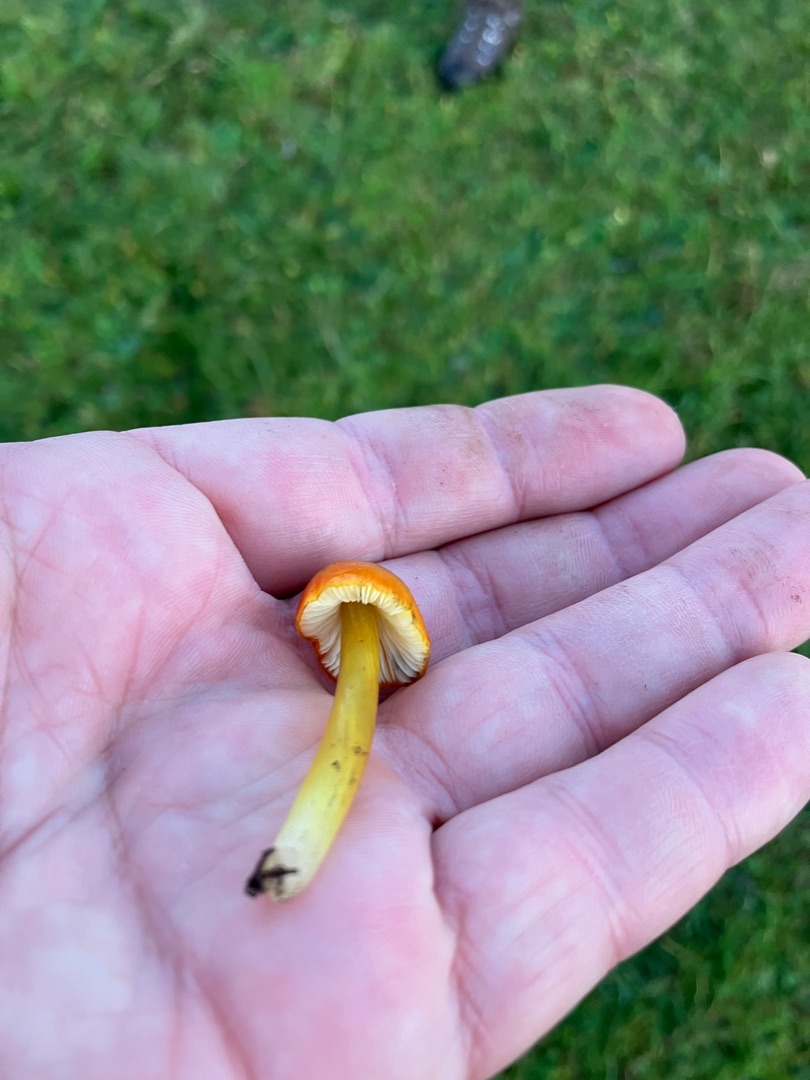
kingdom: Fungi
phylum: Basidiomycota
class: Agaricomycetes
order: Agaricales
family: Hygrophoraceae
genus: Hygrocybe
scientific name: Hygrocybe conica
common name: Kegle-vokshat
